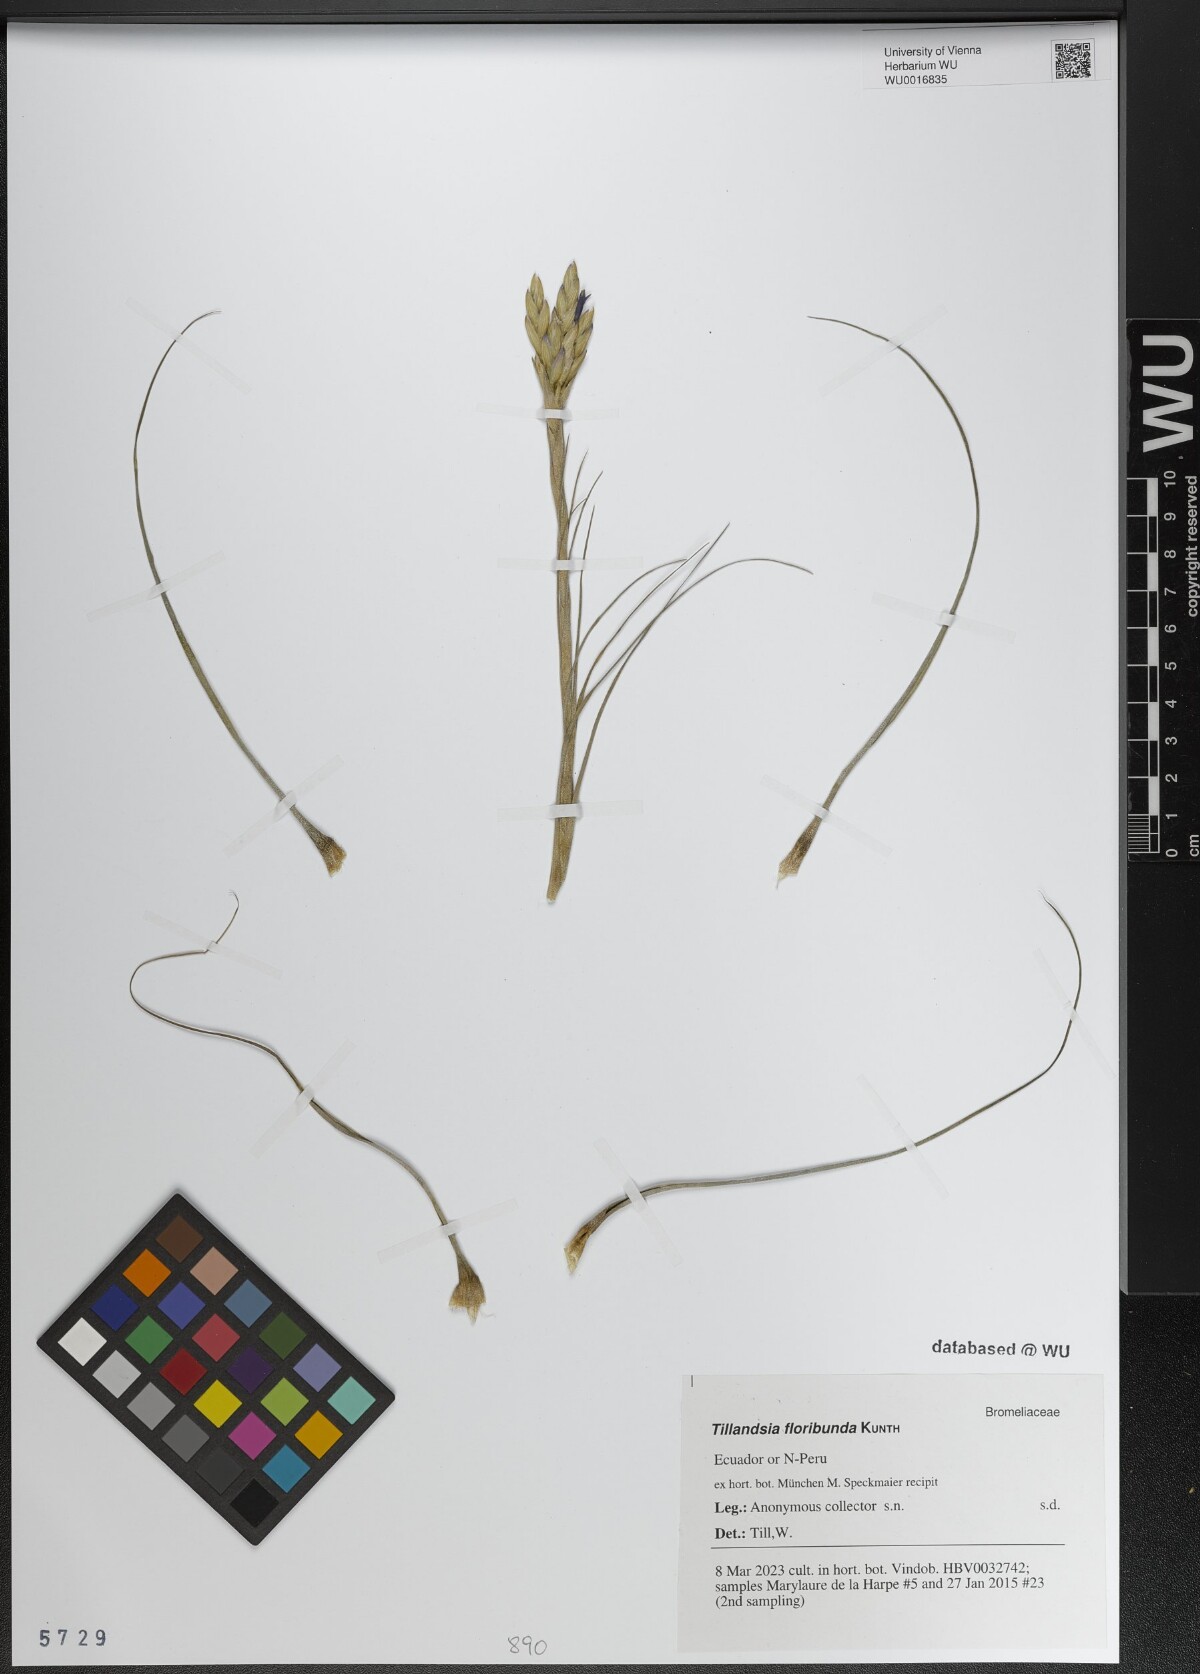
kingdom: Plantae
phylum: Tracheophyta
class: Liliopsida
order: Poales
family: Bromeliaceae
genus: Tillandsia
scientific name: Tillandsia floribunda
